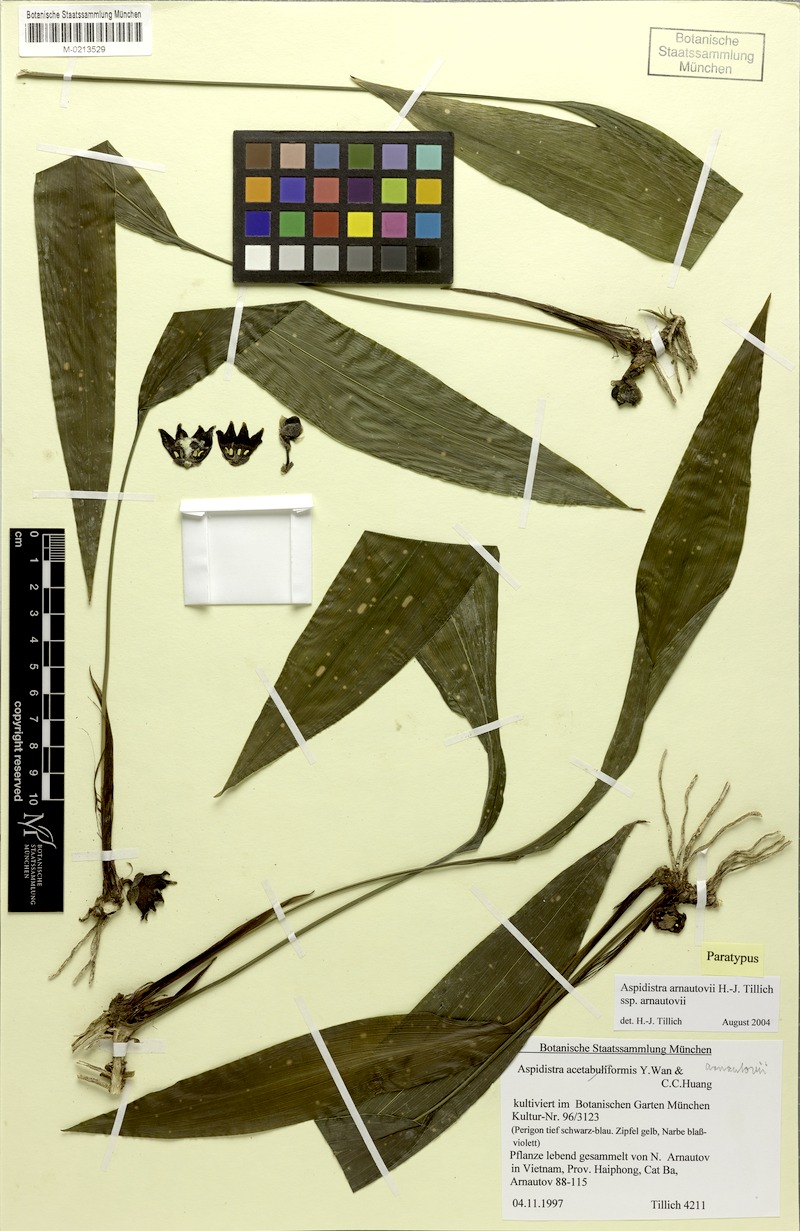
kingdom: Plantae
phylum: Tracheophyta
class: Liliopsida
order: Asparagales
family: Asparagaceae
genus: Aspidistra
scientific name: Aspidistra arnautovii
